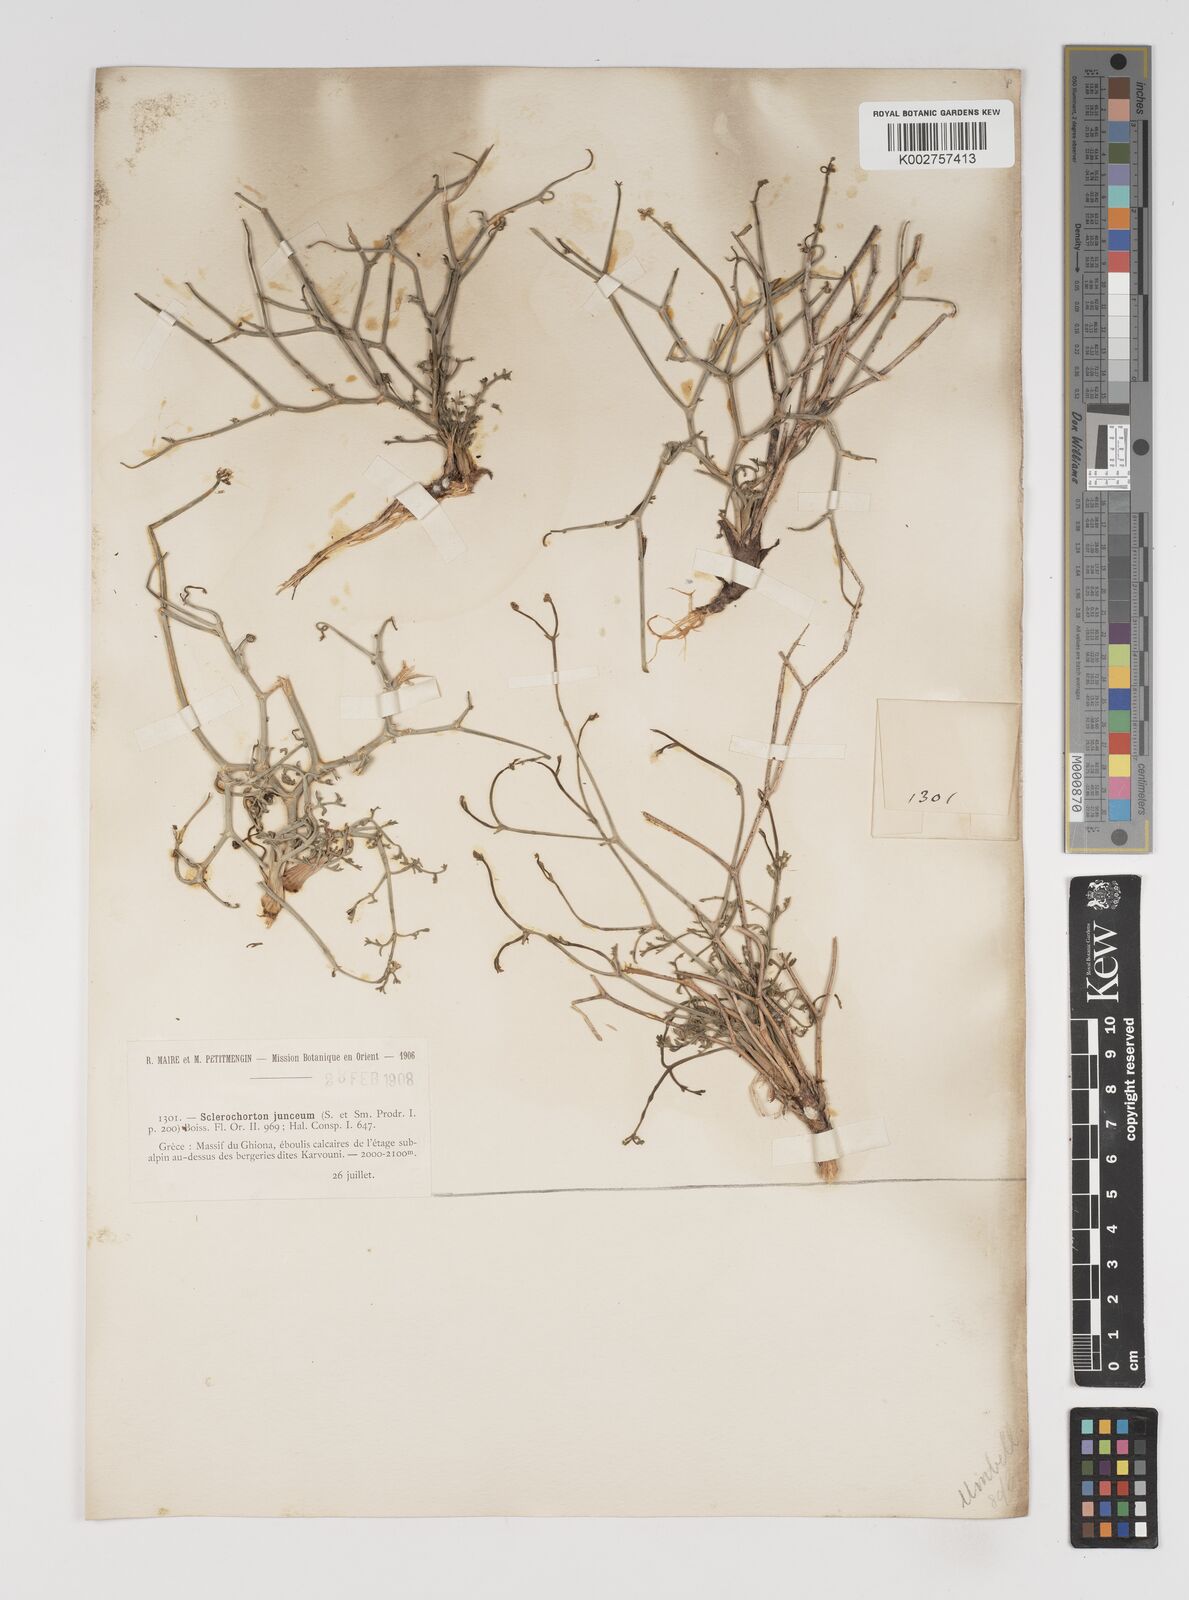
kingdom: Plantae
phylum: Tracheophyta
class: Magnoliopsida
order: Apiales
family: Apiaceae
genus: Thamnosciadium
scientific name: Thamnosciadium junceum
